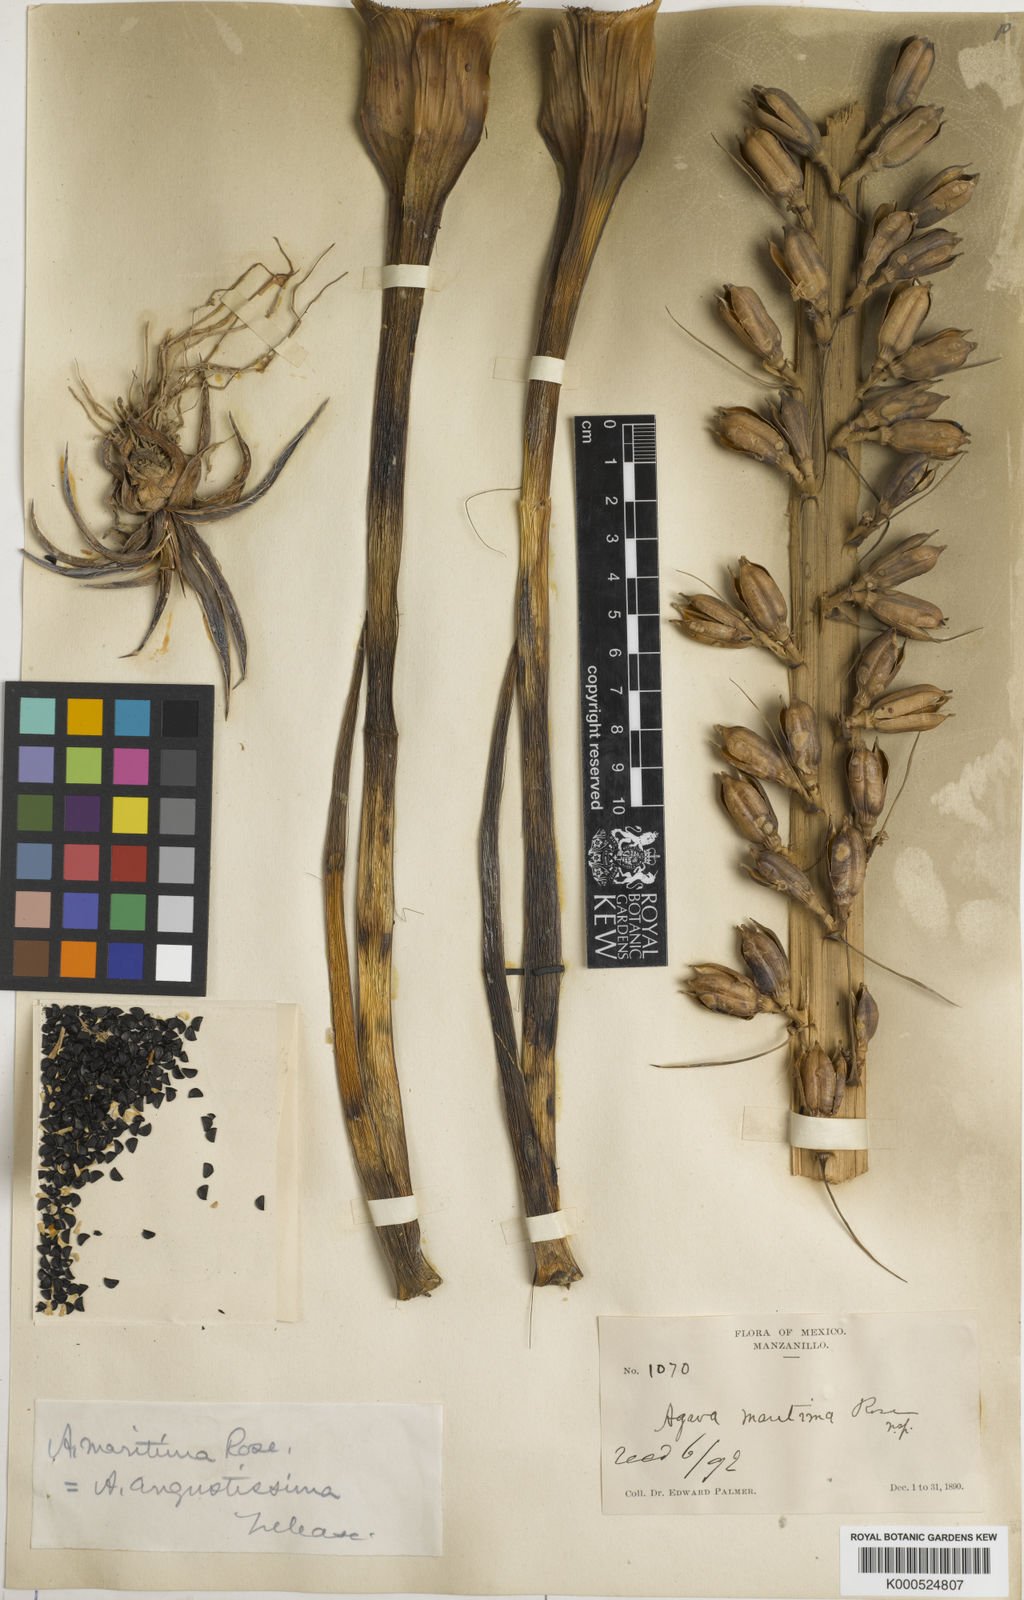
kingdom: Plantae
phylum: Tracheophyta
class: Liliopsida
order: Asparagales
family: Asparagaceae
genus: Agave
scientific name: Agave ortgiesiana
